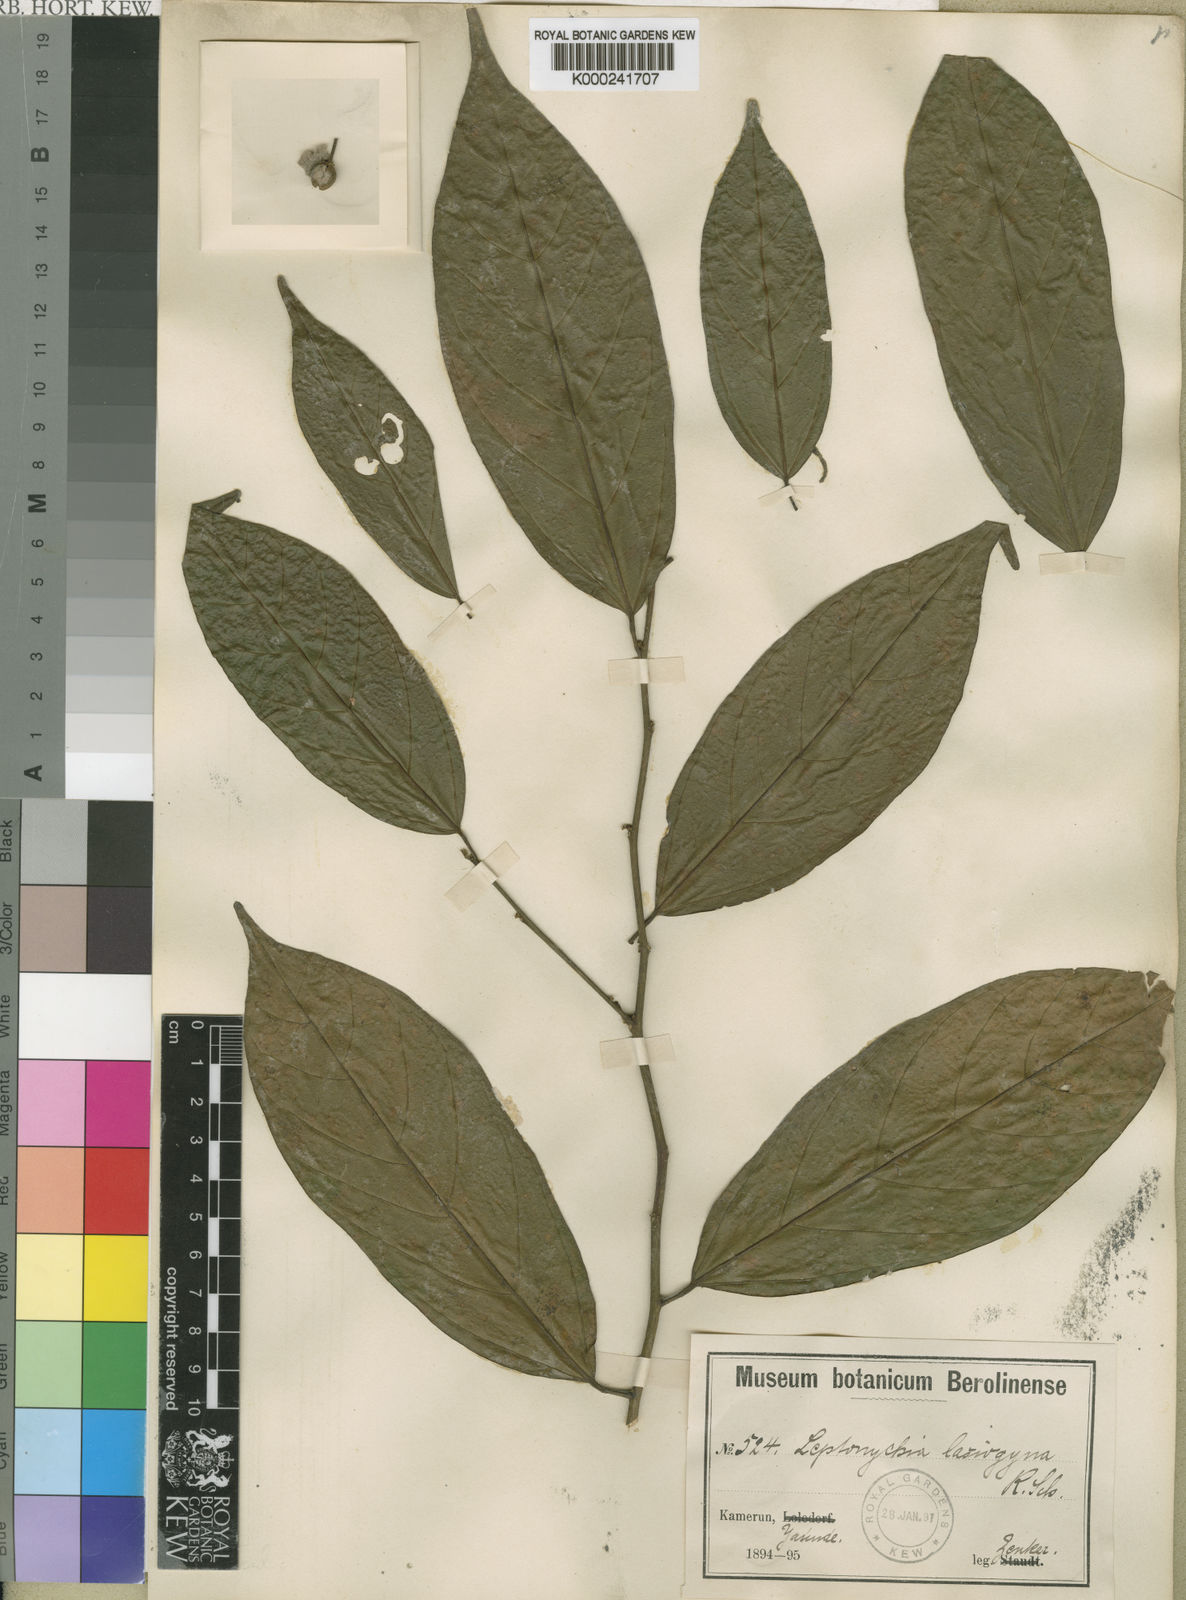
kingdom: Plantae
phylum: Tracheophyta
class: Magnoliopsida
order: Malvales
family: Malvaceae
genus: Leptonychia
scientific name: Leptonychia lasiogyne
